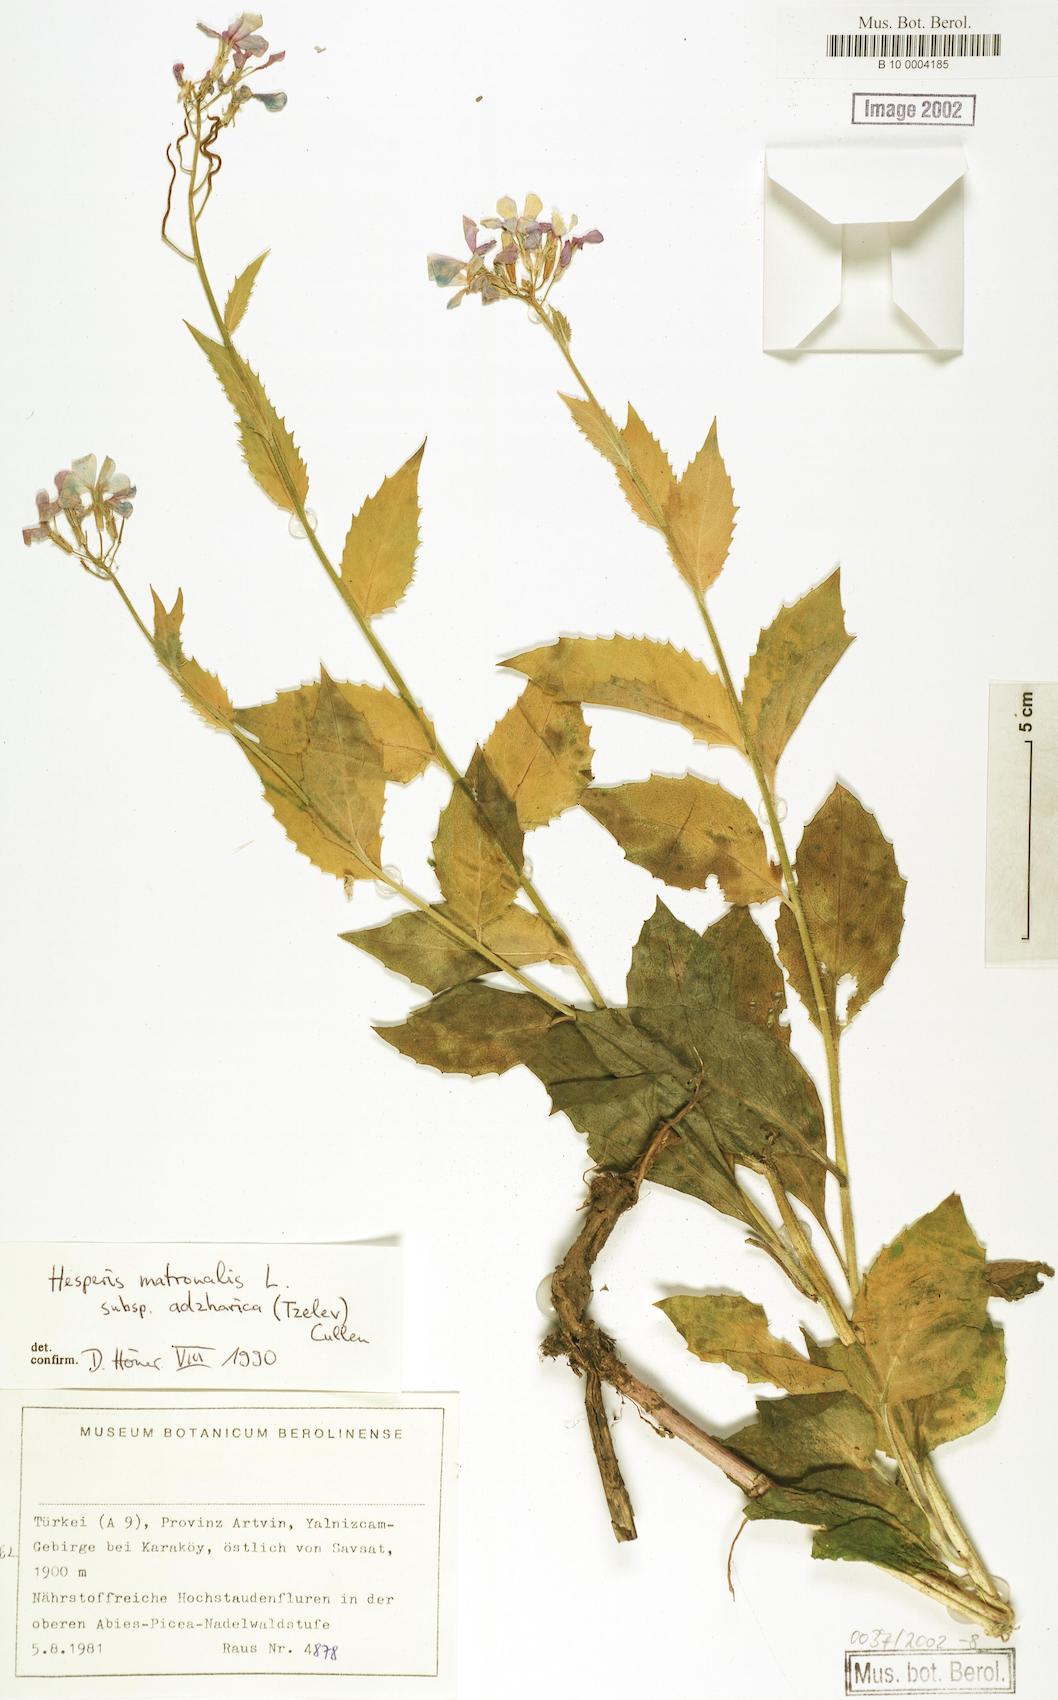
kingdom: Plantae
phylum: Tracheophyta
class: Magnoliopsida
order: Brassicales
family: Brassicaceae
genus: Hesperis
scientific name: Hesperis matronalis
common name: Dame's-violet
